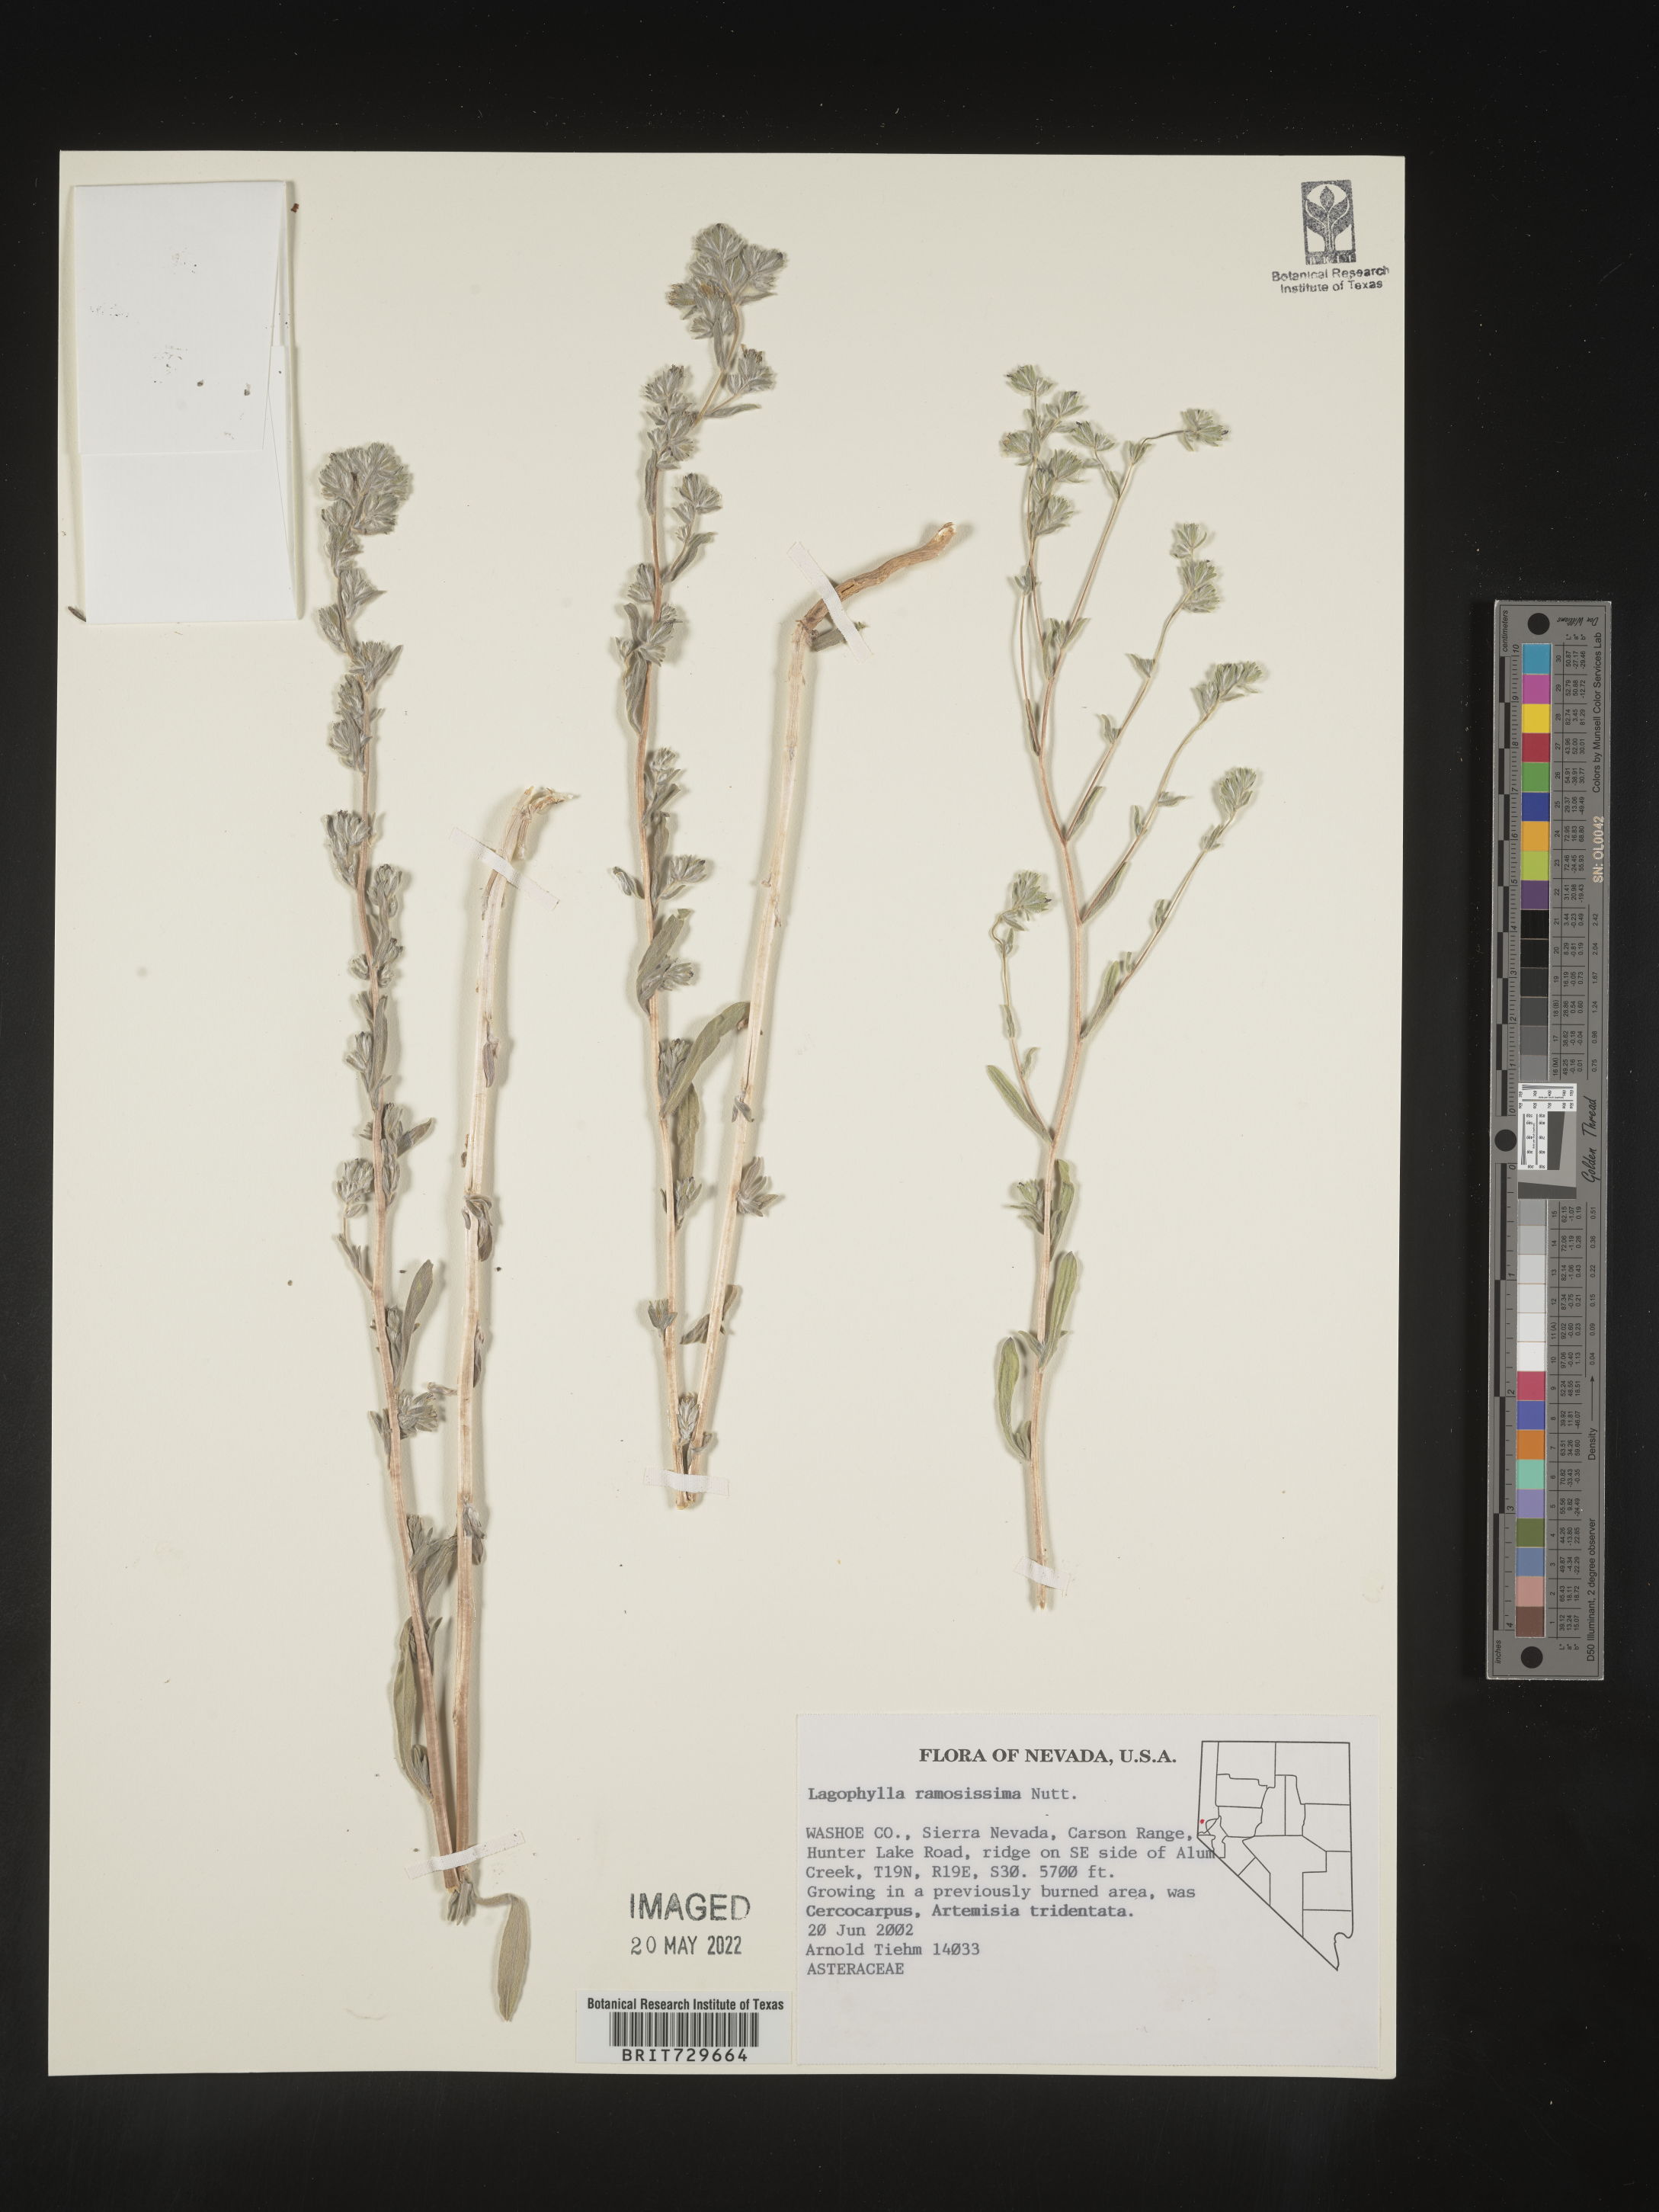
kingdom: Plantae
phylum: Tracheophyta
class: Magnoliopsida
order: Asterales
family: Asteraceae
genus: Lagophylla
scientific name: Lagophylla
